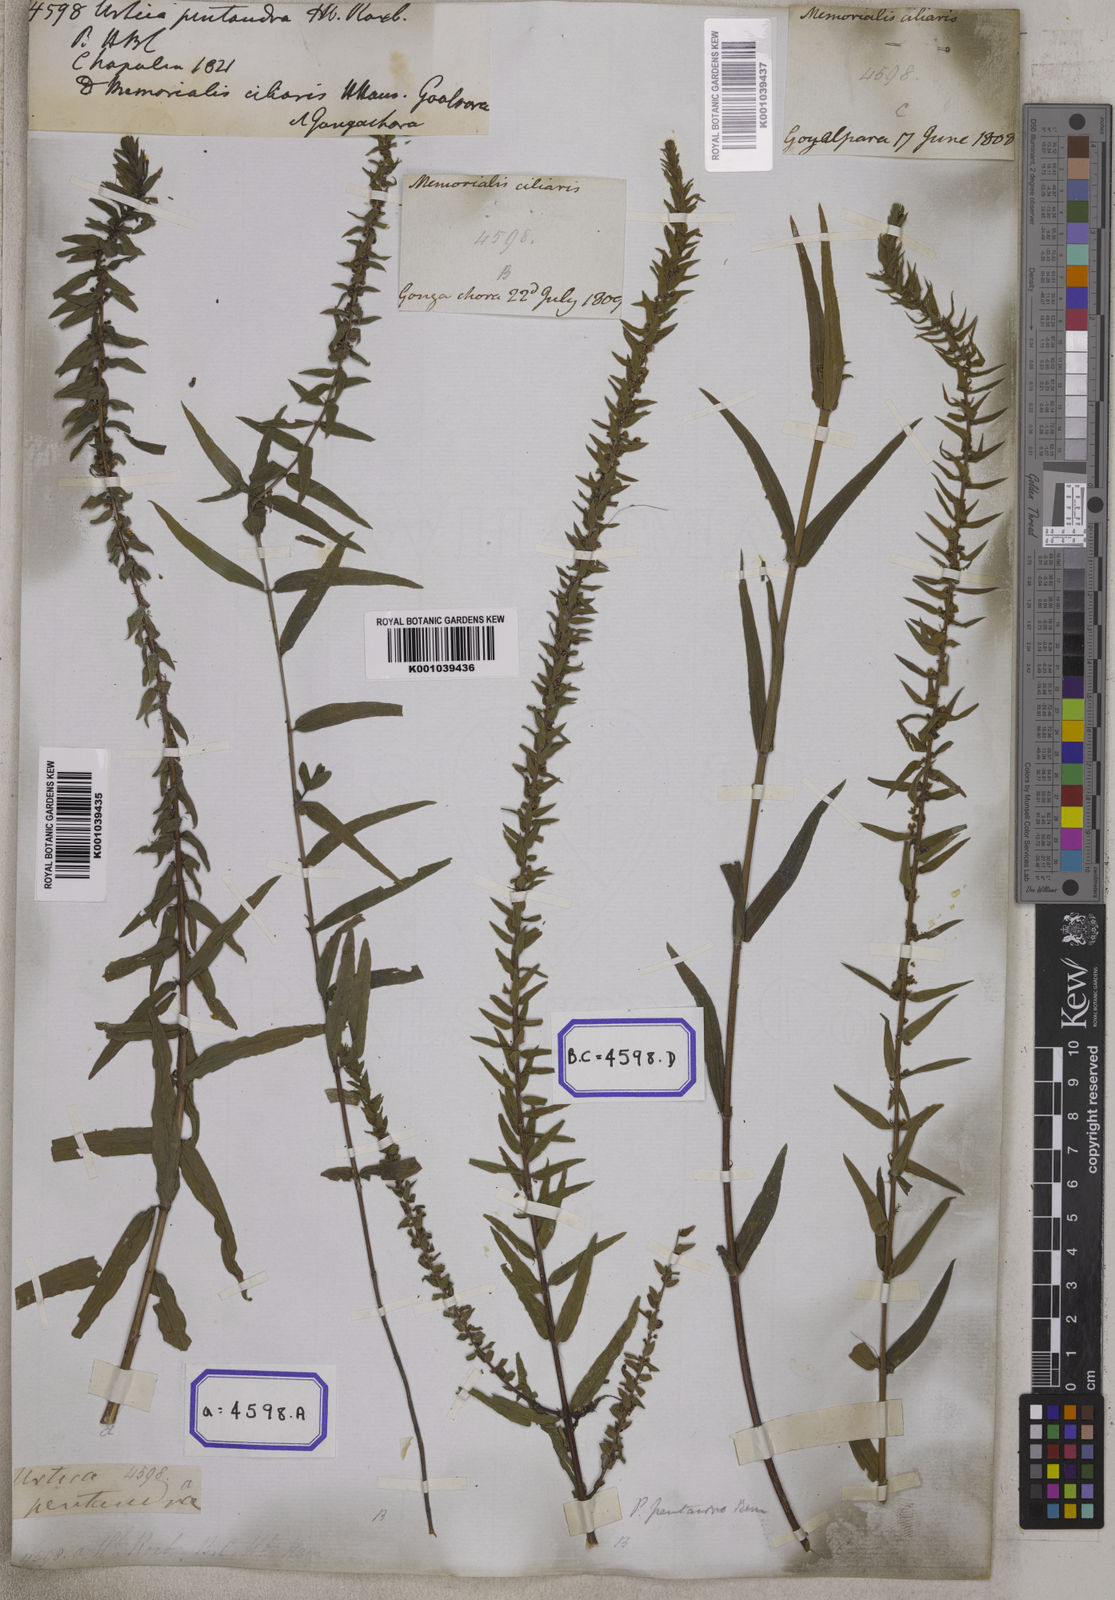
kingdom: Plantae
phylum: Tracheophyta
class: Magnoliopsida
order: Rosales
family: Urticaceae
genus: Gonostegia
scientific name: Gonostegia pentandra
